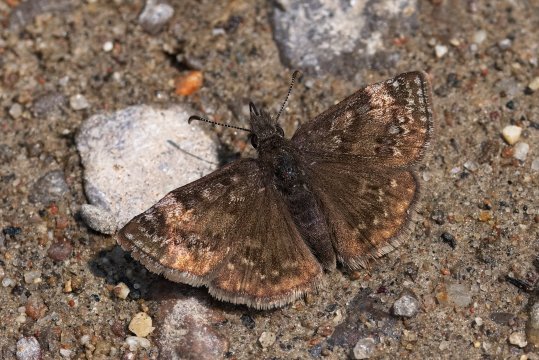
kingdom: Animalia
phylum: Arthropoda
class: Insecta
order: Lepidoptera
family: Hesperiidae
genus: Erynnis
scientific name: Erynnis icelus
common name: Dreamy Duskywing
